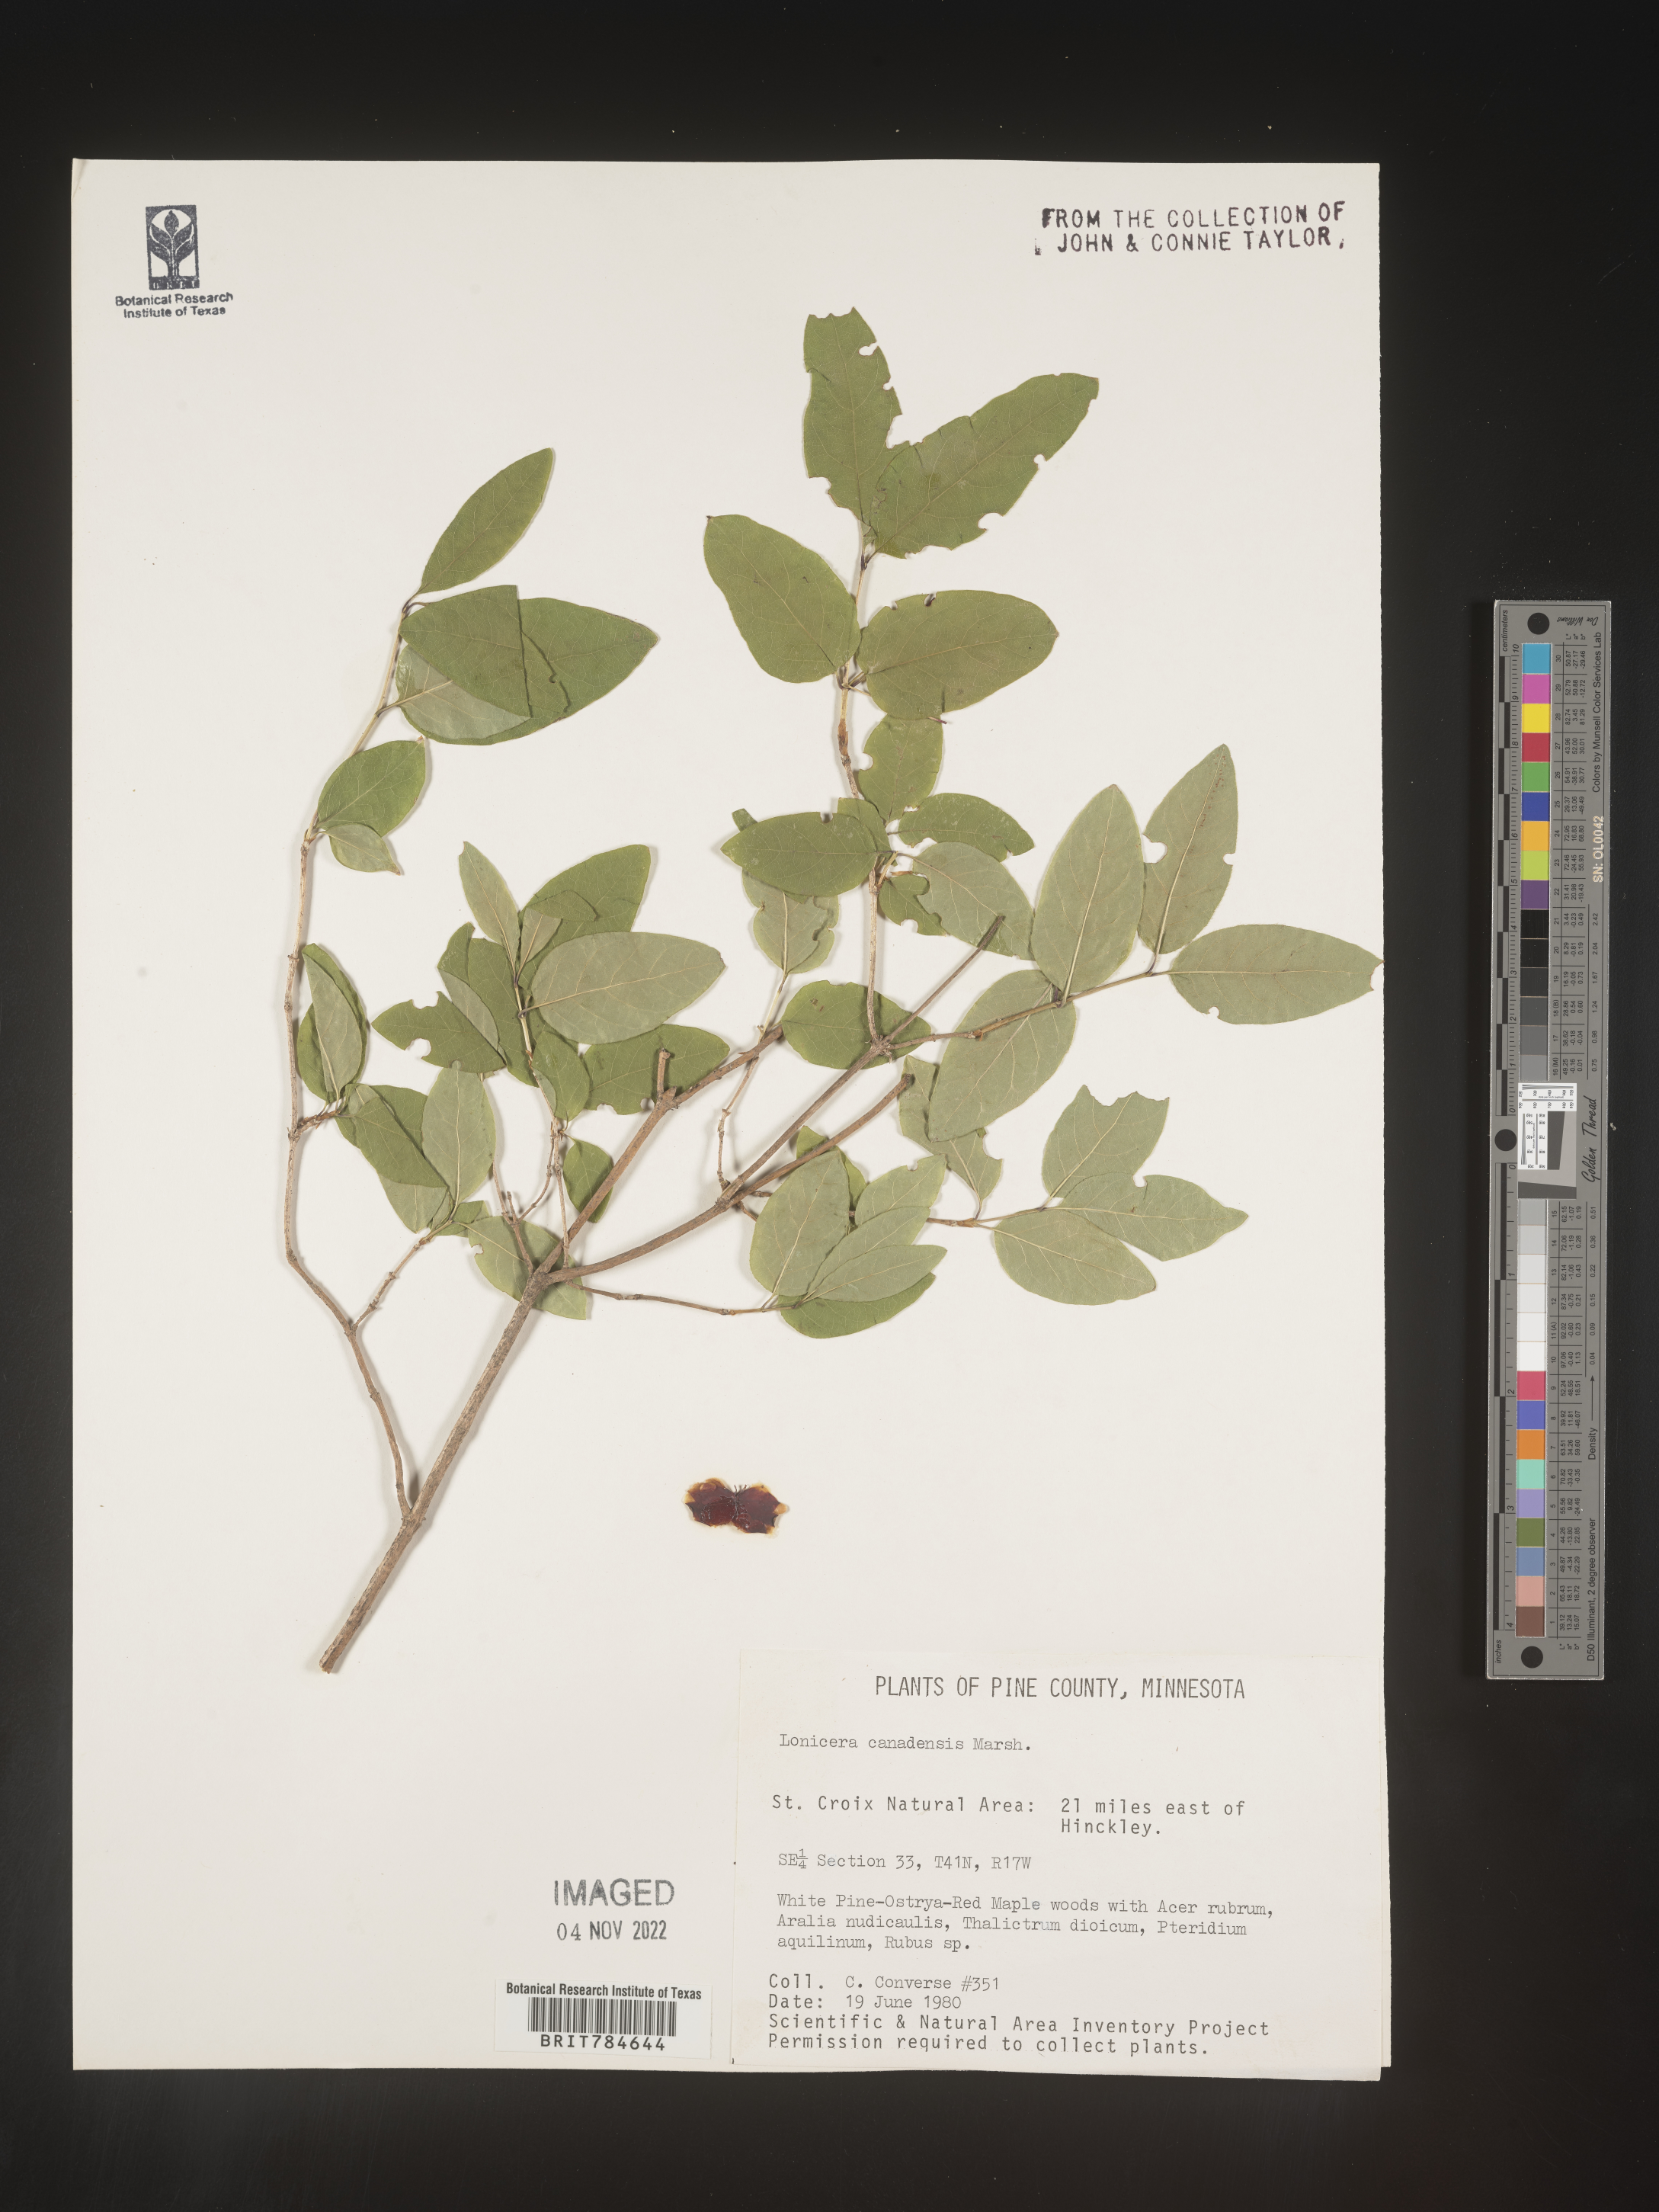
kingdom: Plantae
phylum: Tracheophyta
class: Magnoliopsida
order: Dipsacales
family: Caprifoliaceae
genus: Lonicera
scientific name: Lonicera
